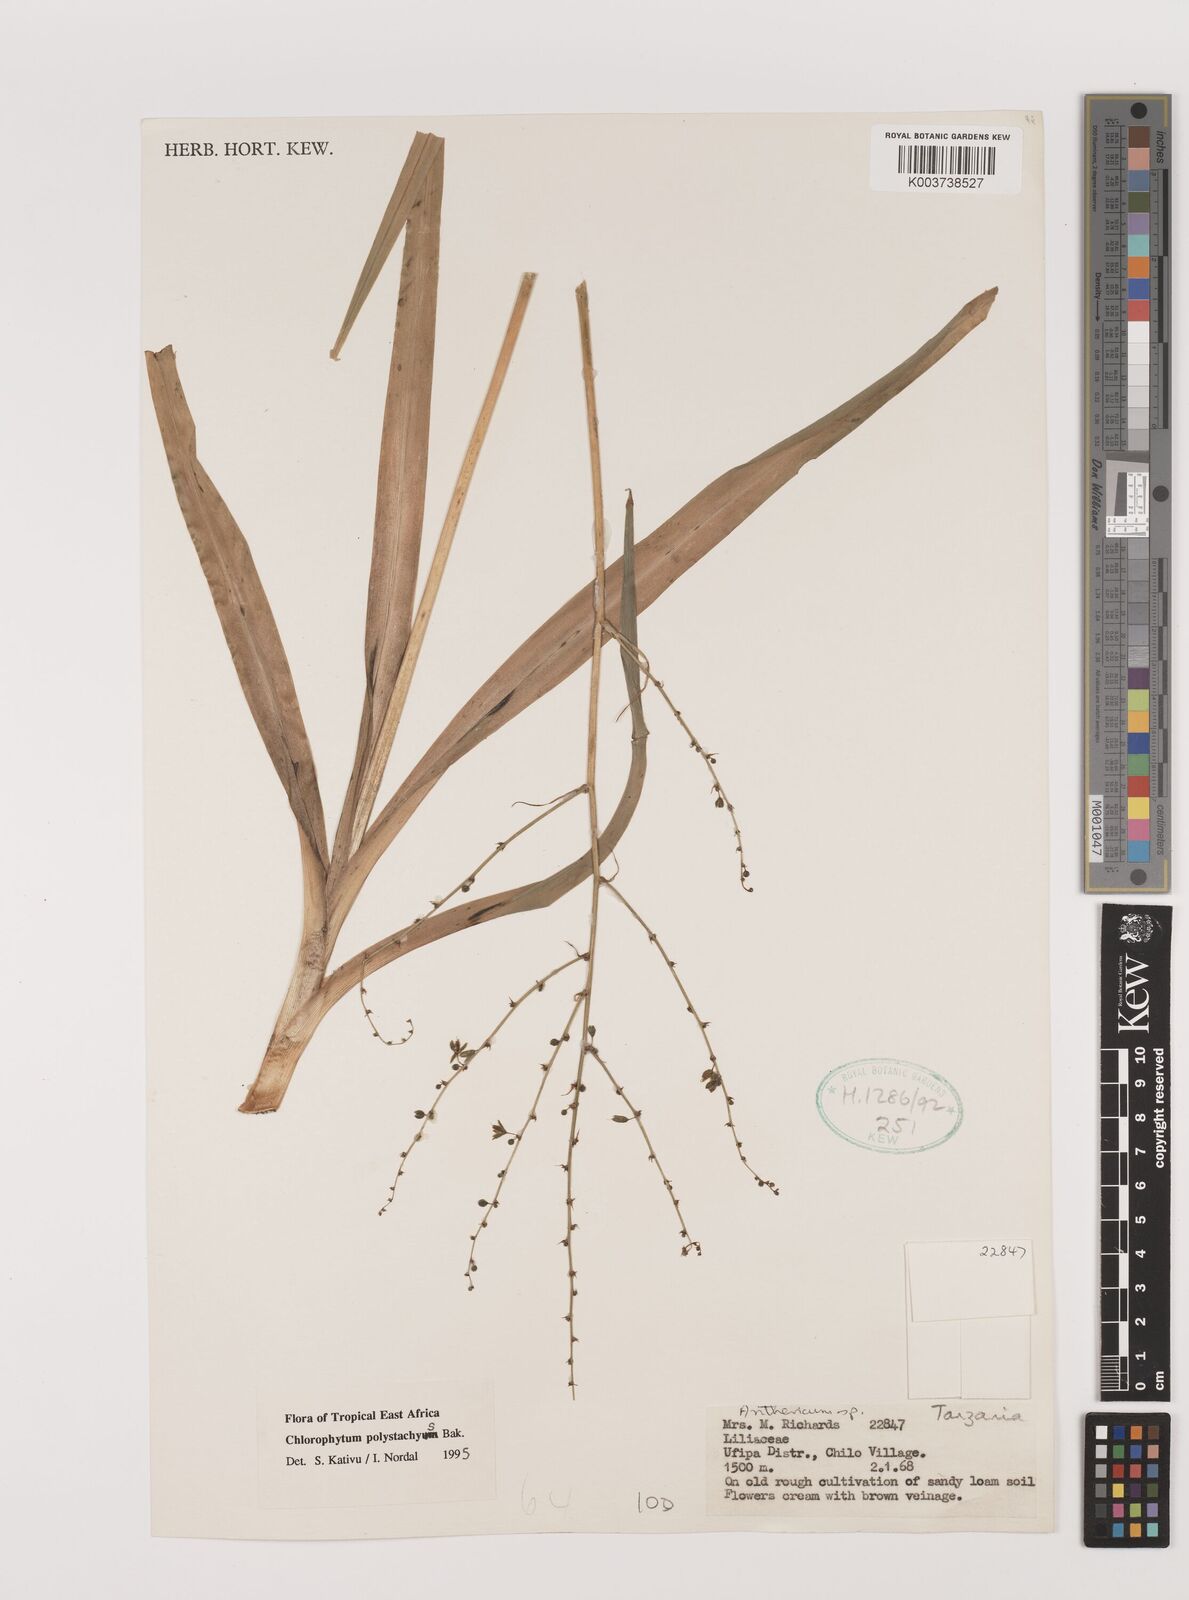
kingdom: Plantae
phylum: Tracheophyta
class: Liliopsida
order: Asparagales
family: Asparagaceae
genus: Chlorophytum
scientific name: Chlorophytum pubiflorum
